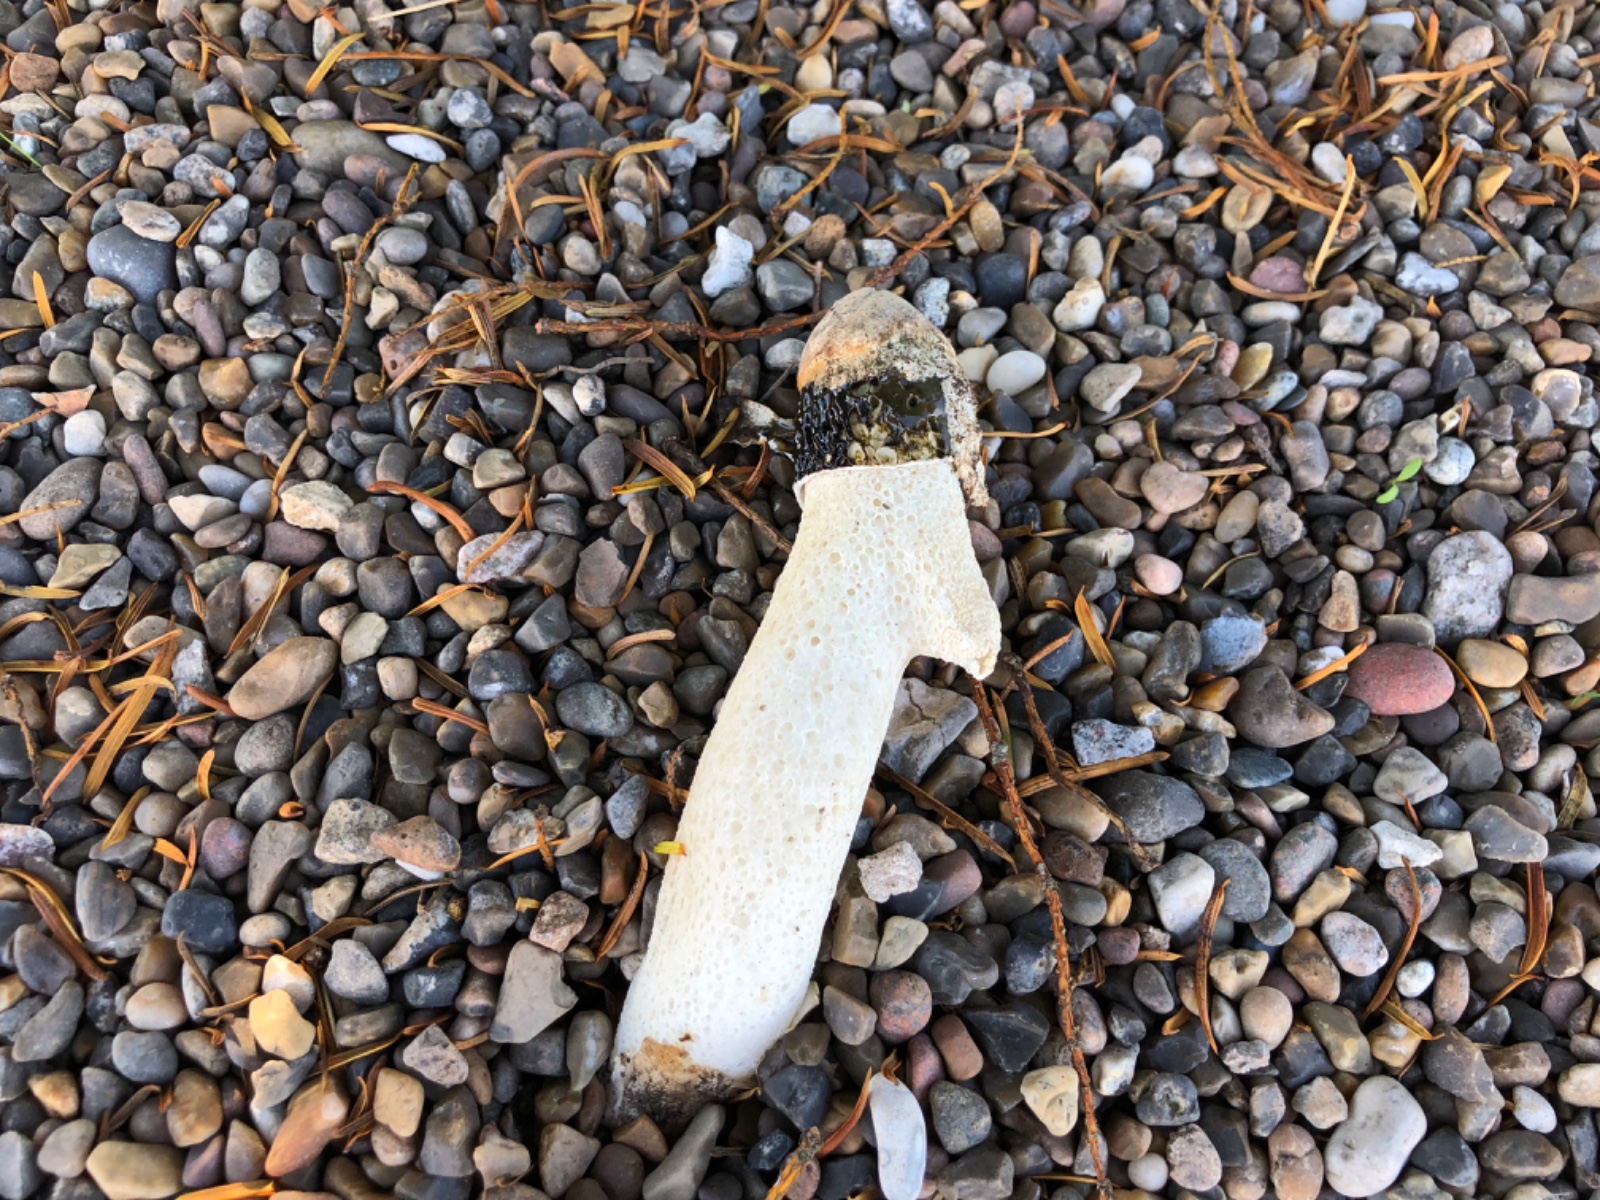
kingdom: Fungi
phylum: Basidiomycota
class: Agaricomycetes
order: Phallales
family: Phallaceae
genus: Phallus
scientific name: Phallus impudicus
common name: almindelig stinksvamp
